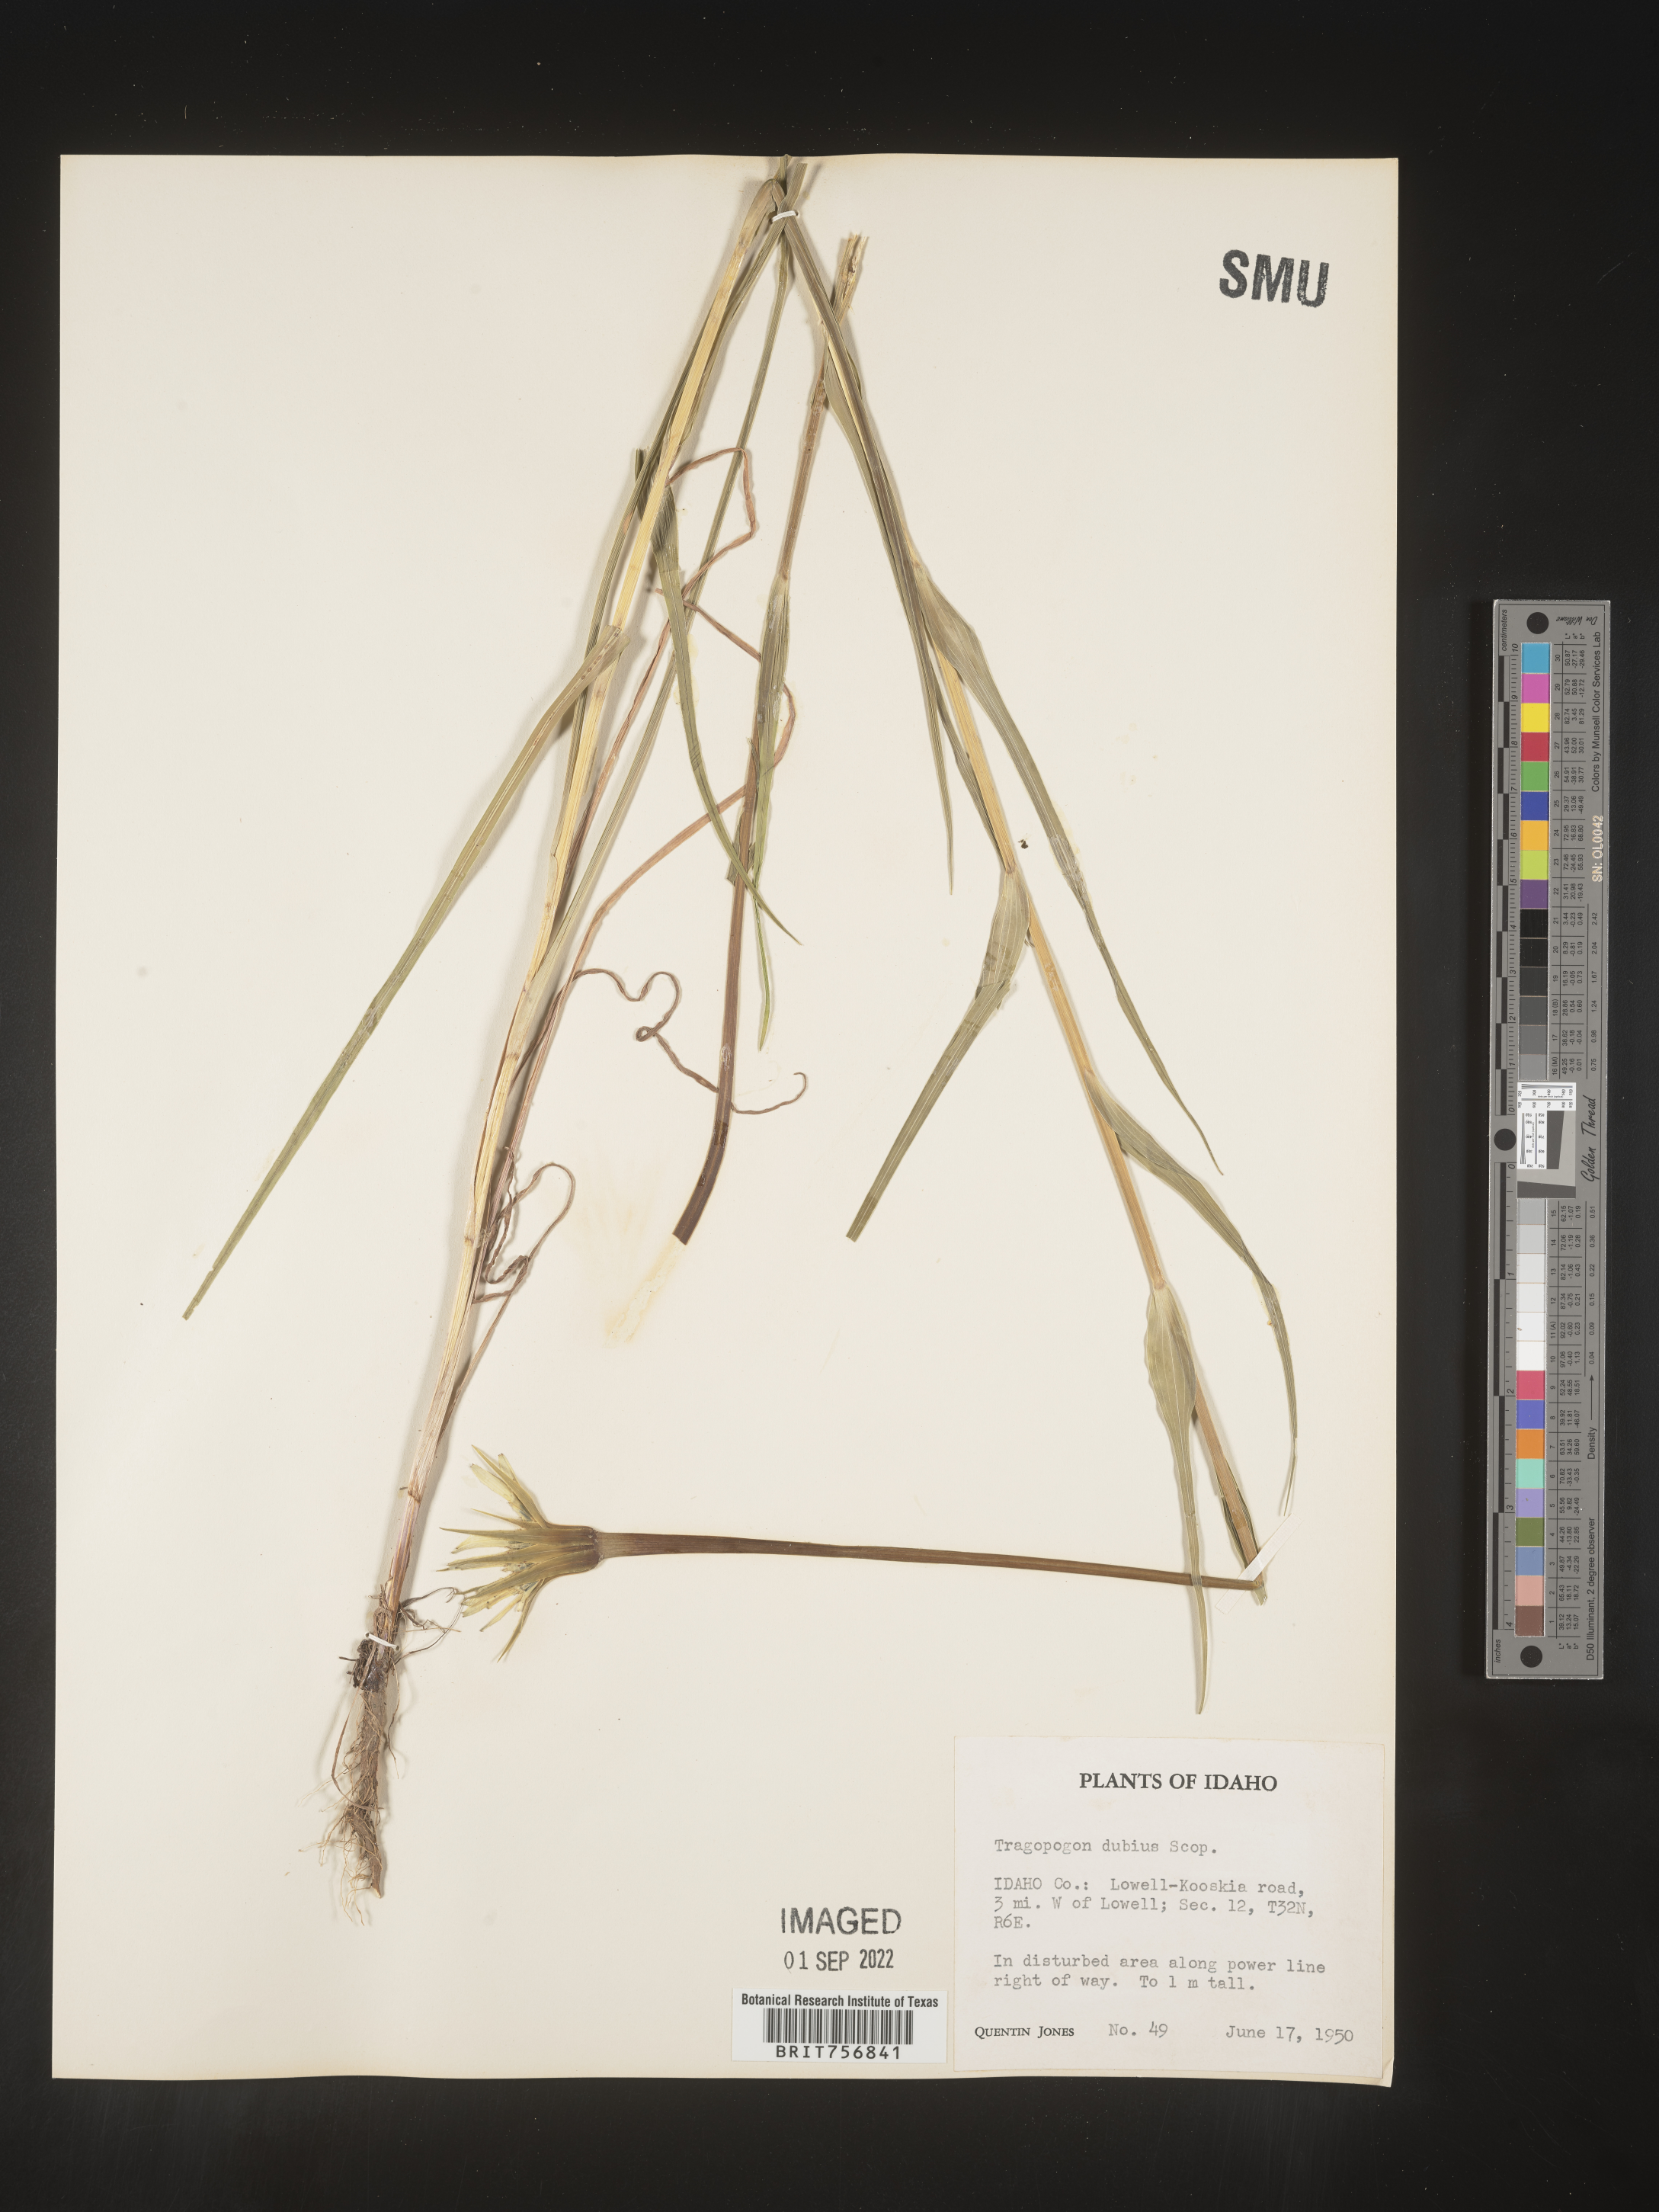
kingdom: Plantae
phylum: Tracheophyta
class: Magnoliopsida
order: Asterales
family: Asteraceae
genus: Tragopogon
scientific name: Tragopogon dubius
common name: Yellow salsify
